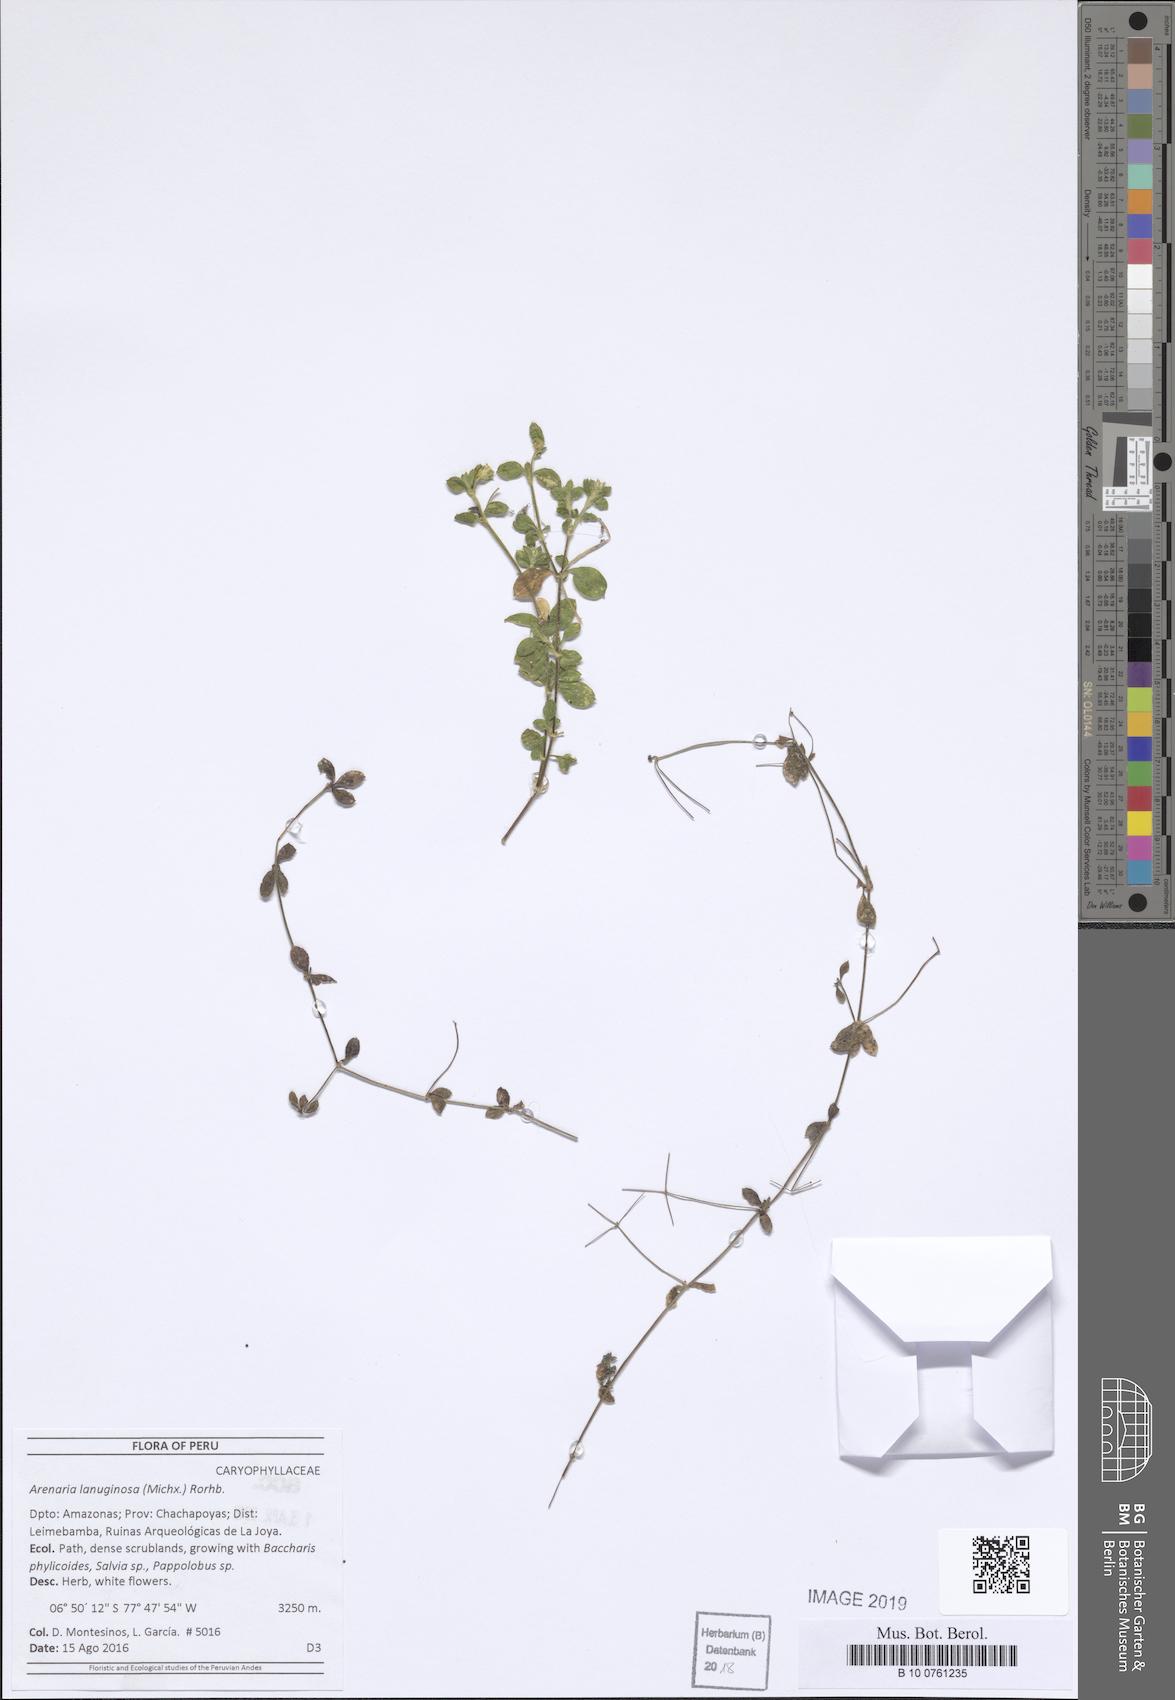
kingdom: Plantae
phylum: Tracheophyta
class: Magnoliopsida
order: Caryophyllales
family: Caryophyllaceae
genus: Arenaria
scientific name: Arenaria lanuginosa
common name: Spread sandwort
